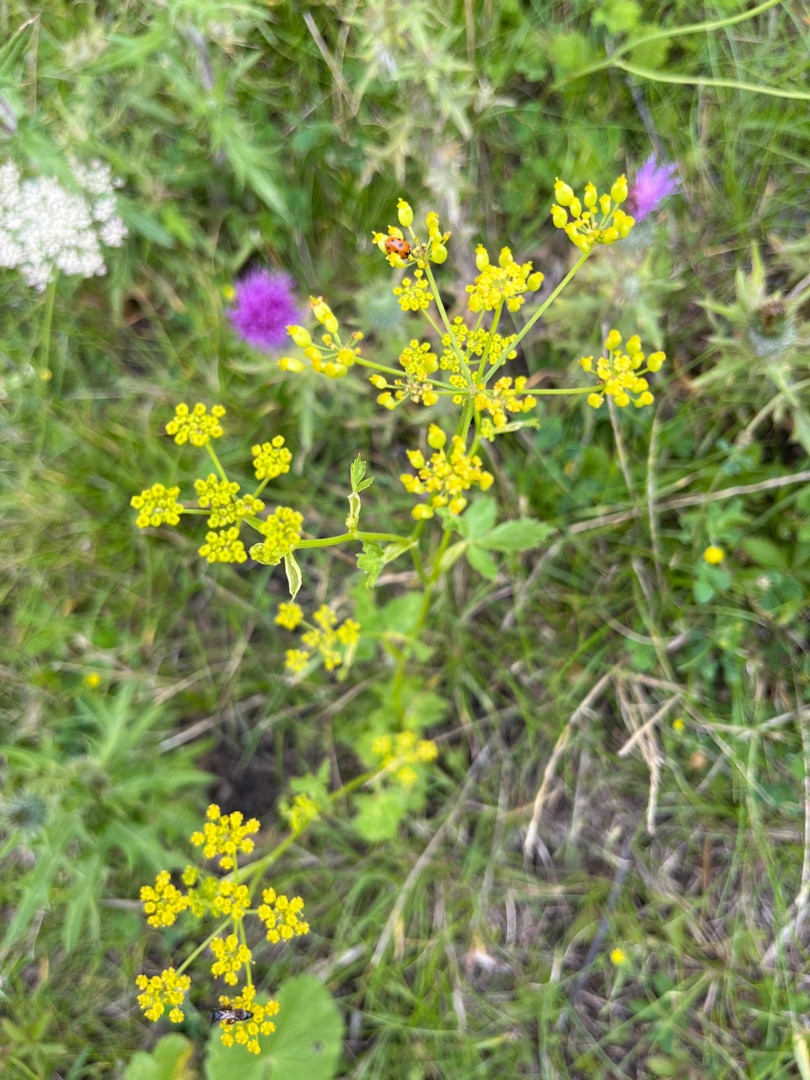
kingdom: Plantae
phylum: Tracheophyta
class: Magnoliopsida
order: Apiales
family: Apiaceae
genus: Pastinaca
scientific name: Pastinaca sativa
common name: Pastinak
